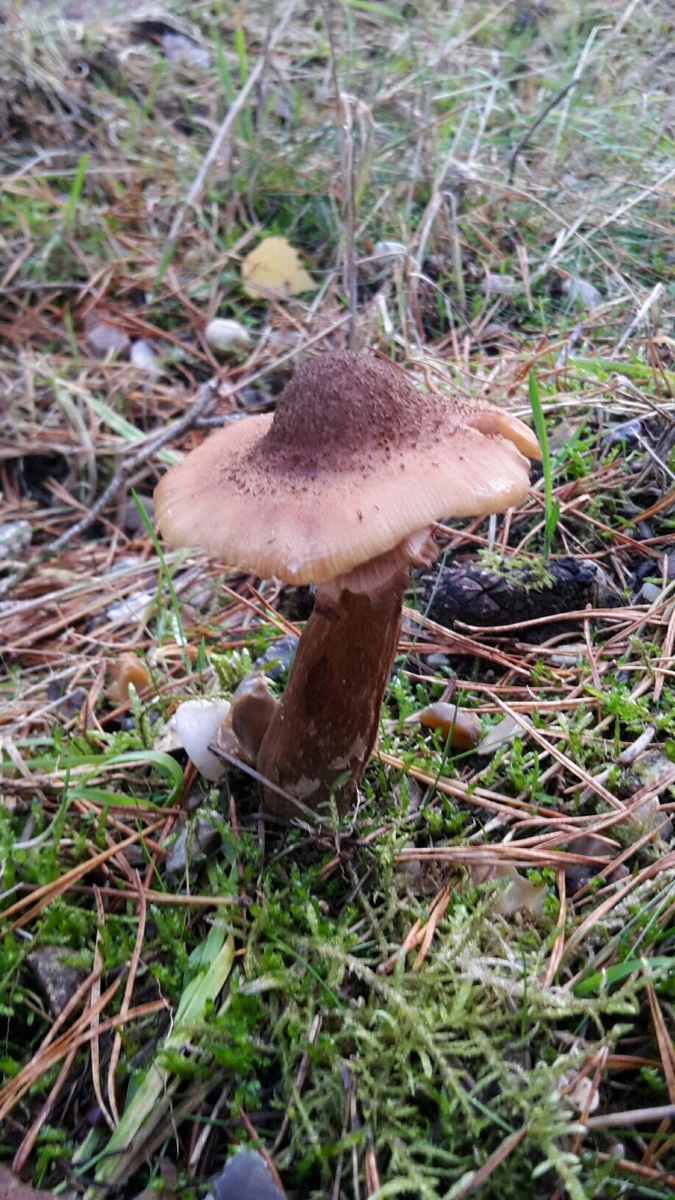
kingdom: Fungi
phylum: Basidiomycota
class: Agaricomycetes
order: Agaricales
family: Physalacriaceae
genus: Armillaria
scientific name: Armillaria lutea
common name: køllestokket honningsvamp
